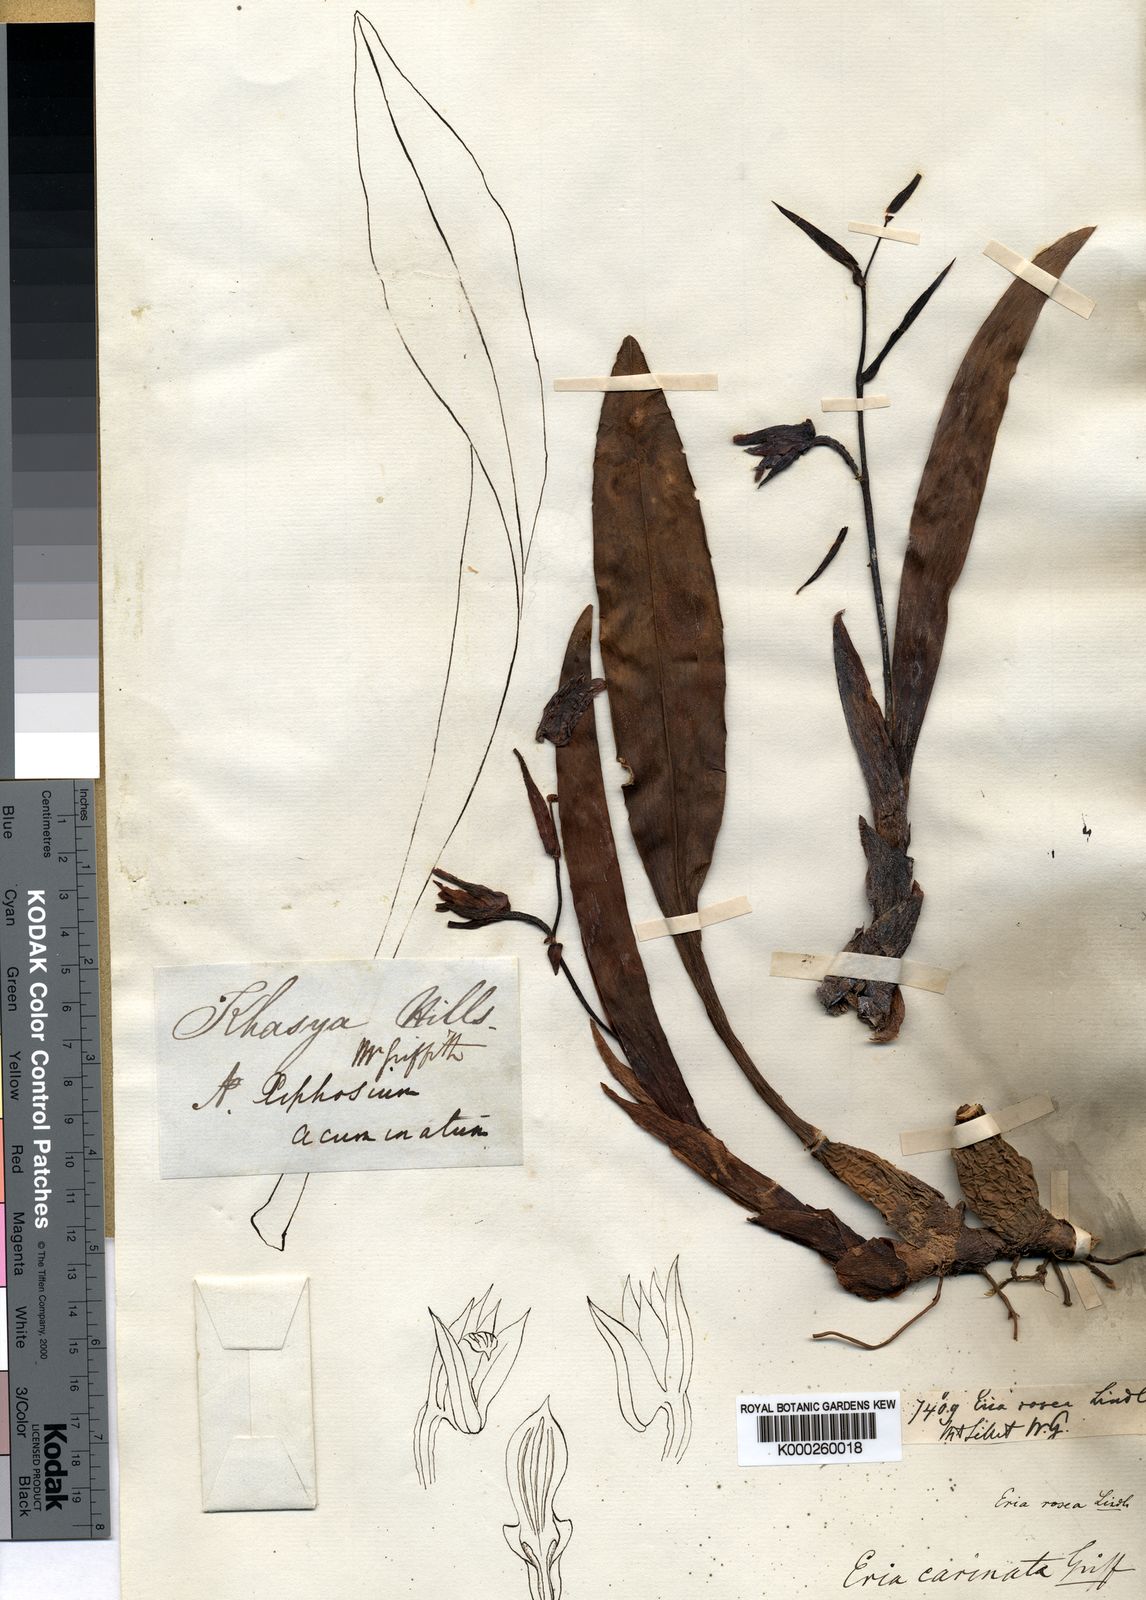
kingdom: Plantae
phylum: Tracheophyta
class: Liliopsida
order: Asparagales
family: Orchidaceae
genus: Eria
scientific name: Eria
